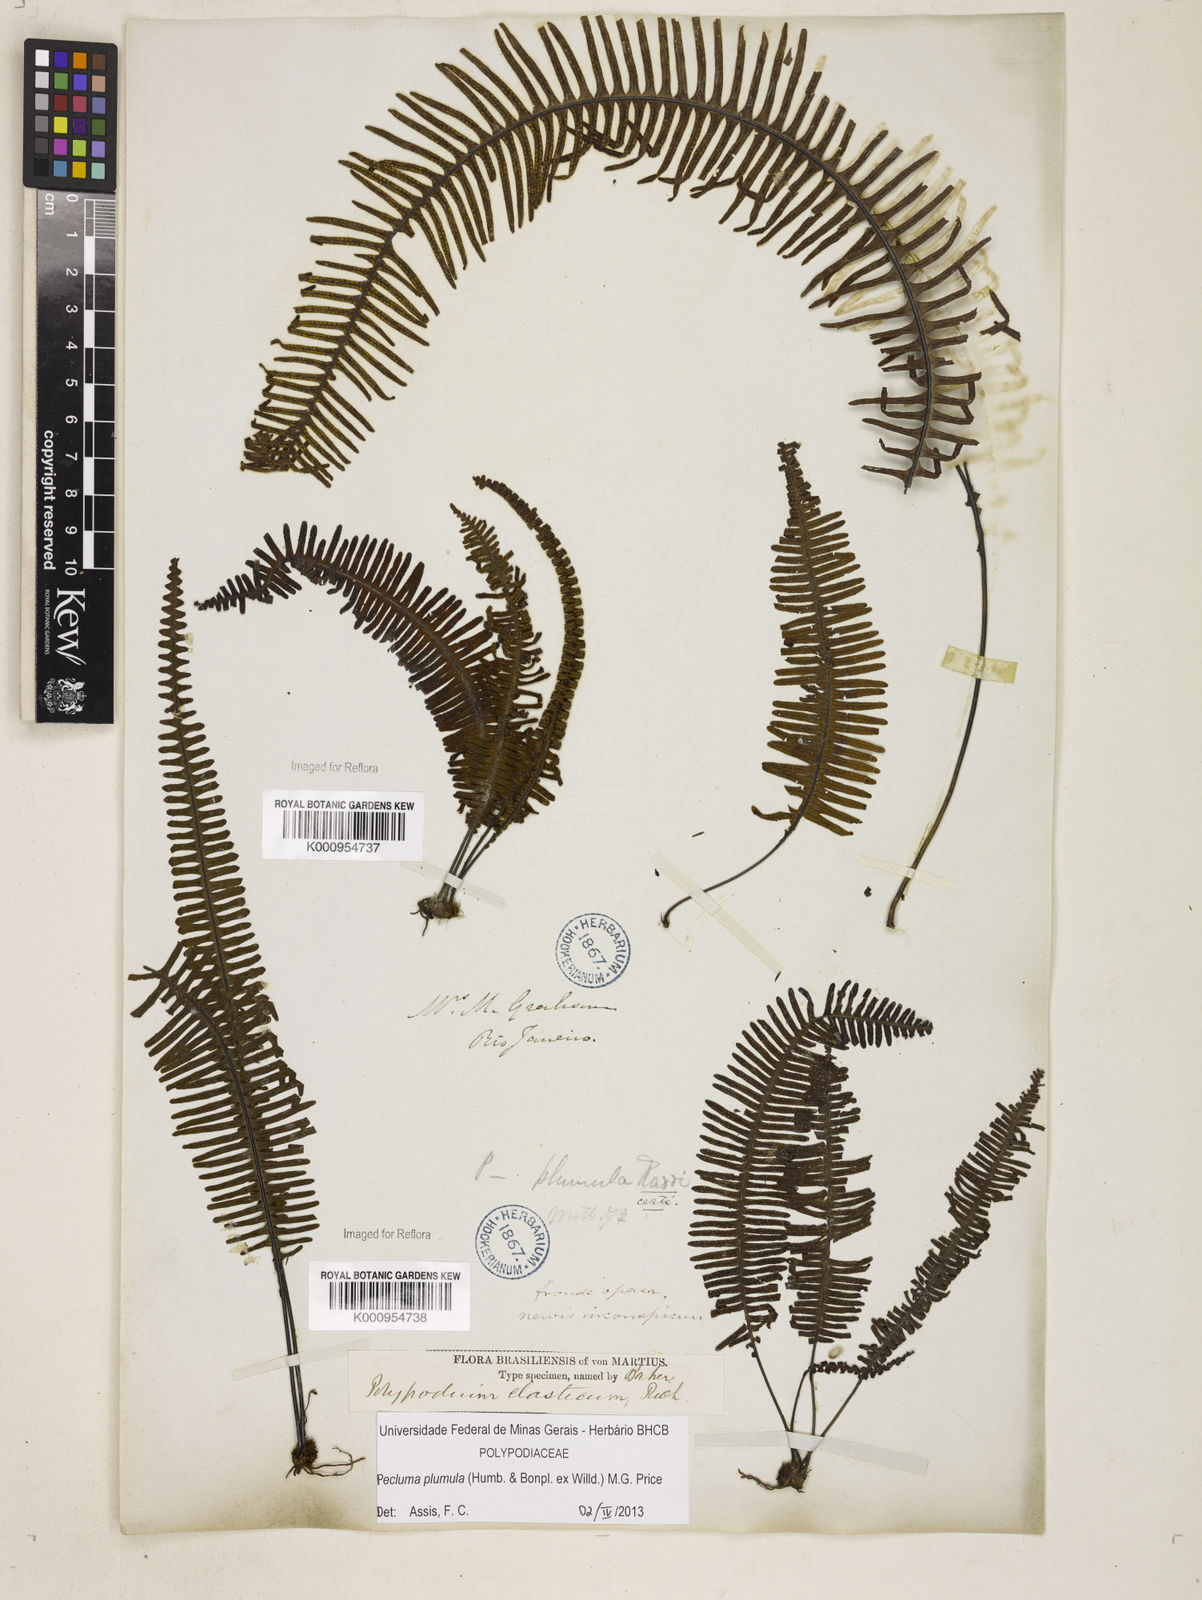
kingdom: Plantae
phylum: Tracheophyta
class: Polypodiopsida
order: Polypodiales
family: Polypodiaceae
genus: Pecluma
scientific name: Pecluma plumula
